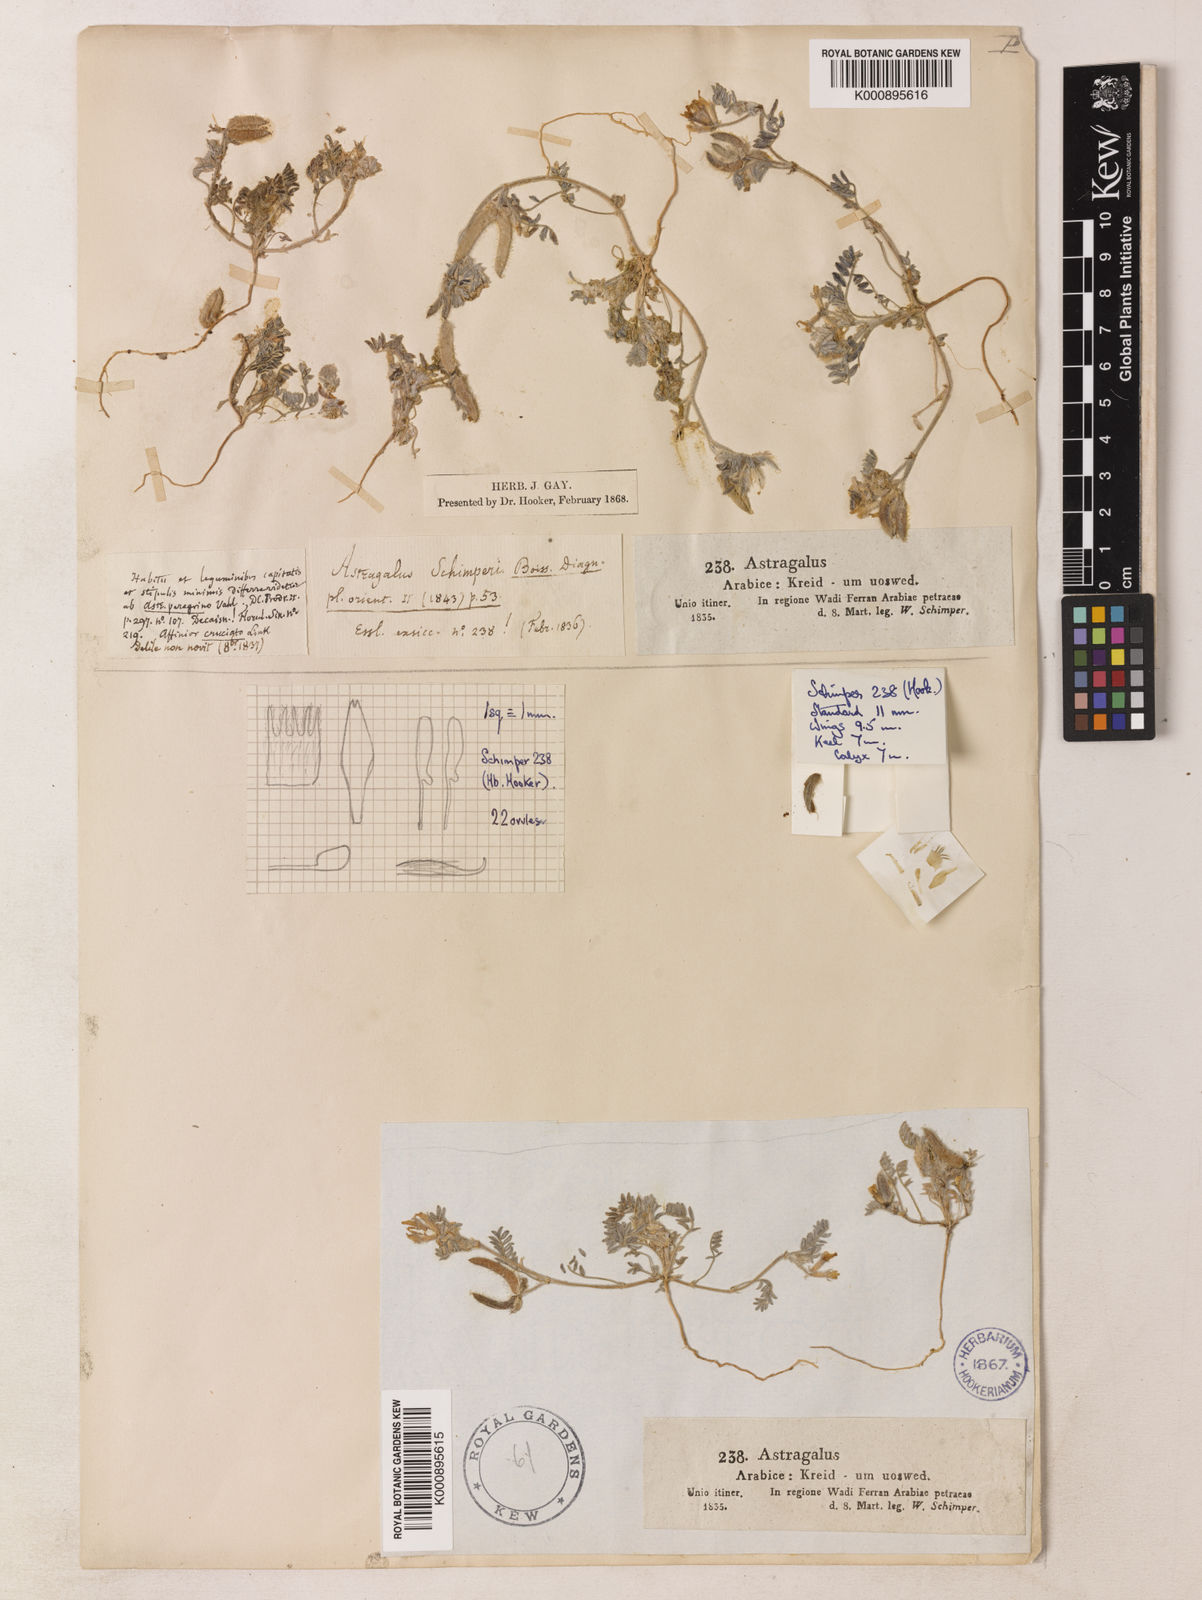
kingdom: Plantae
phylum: Tracheophyta
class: Magnoliopsida
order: Fabales
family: Fabaceae
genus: Astragalus
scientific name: Astragalus schimperi
